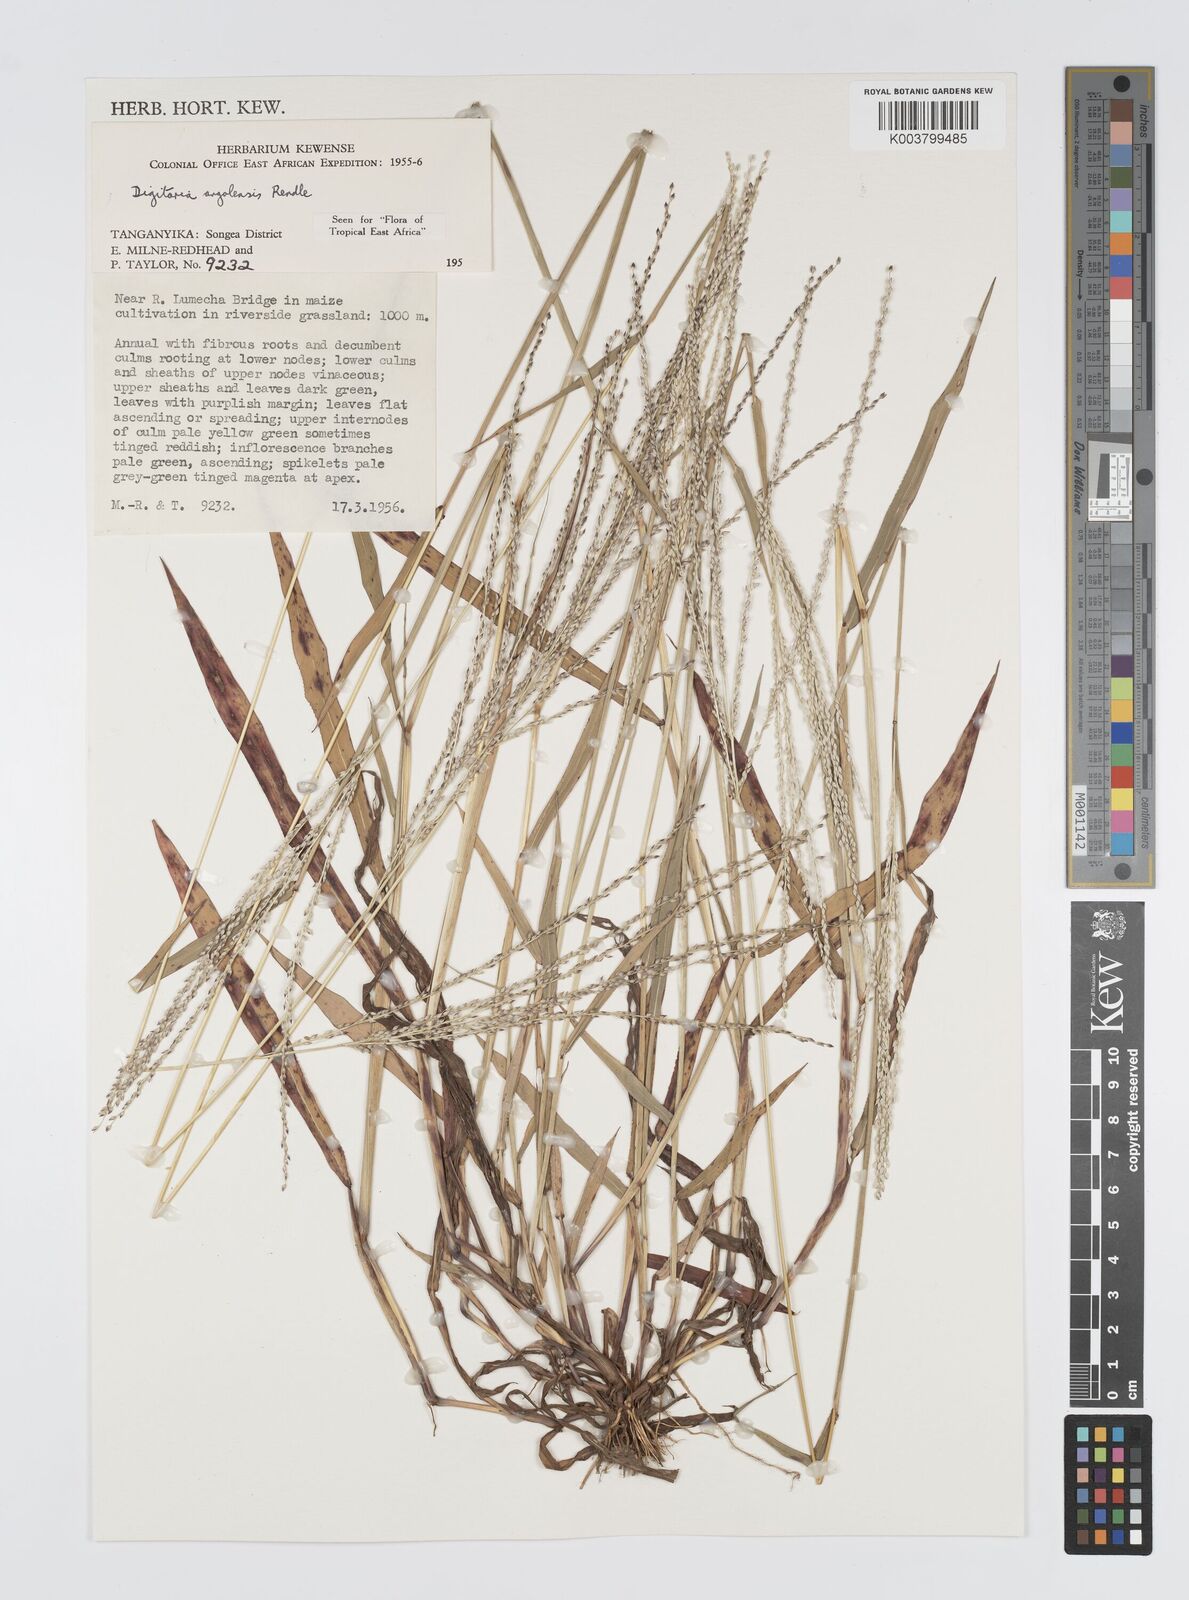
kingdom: Plantae
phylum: Tracheophyta
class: Liliopsida
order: Poales
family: Poaceae
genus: Digitaria
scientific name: Digitaria angolensis
